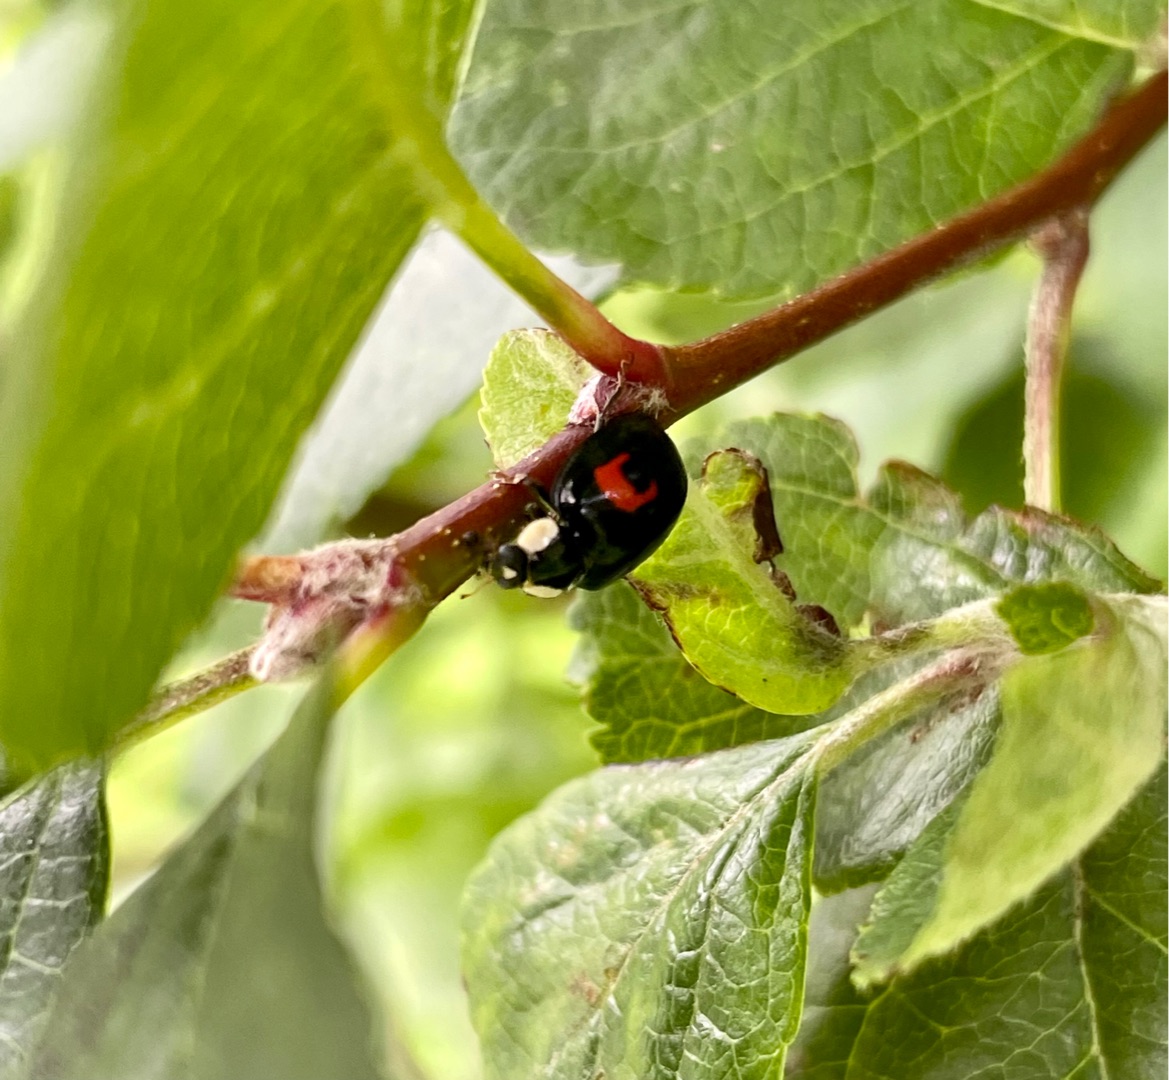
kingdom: Animalia
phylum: Arthropoda
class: Insecta
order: Coleoptera
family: Coccinellidae
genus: Harmonia
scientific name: Harmonia axyridis
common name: Harlekinmariehøne
